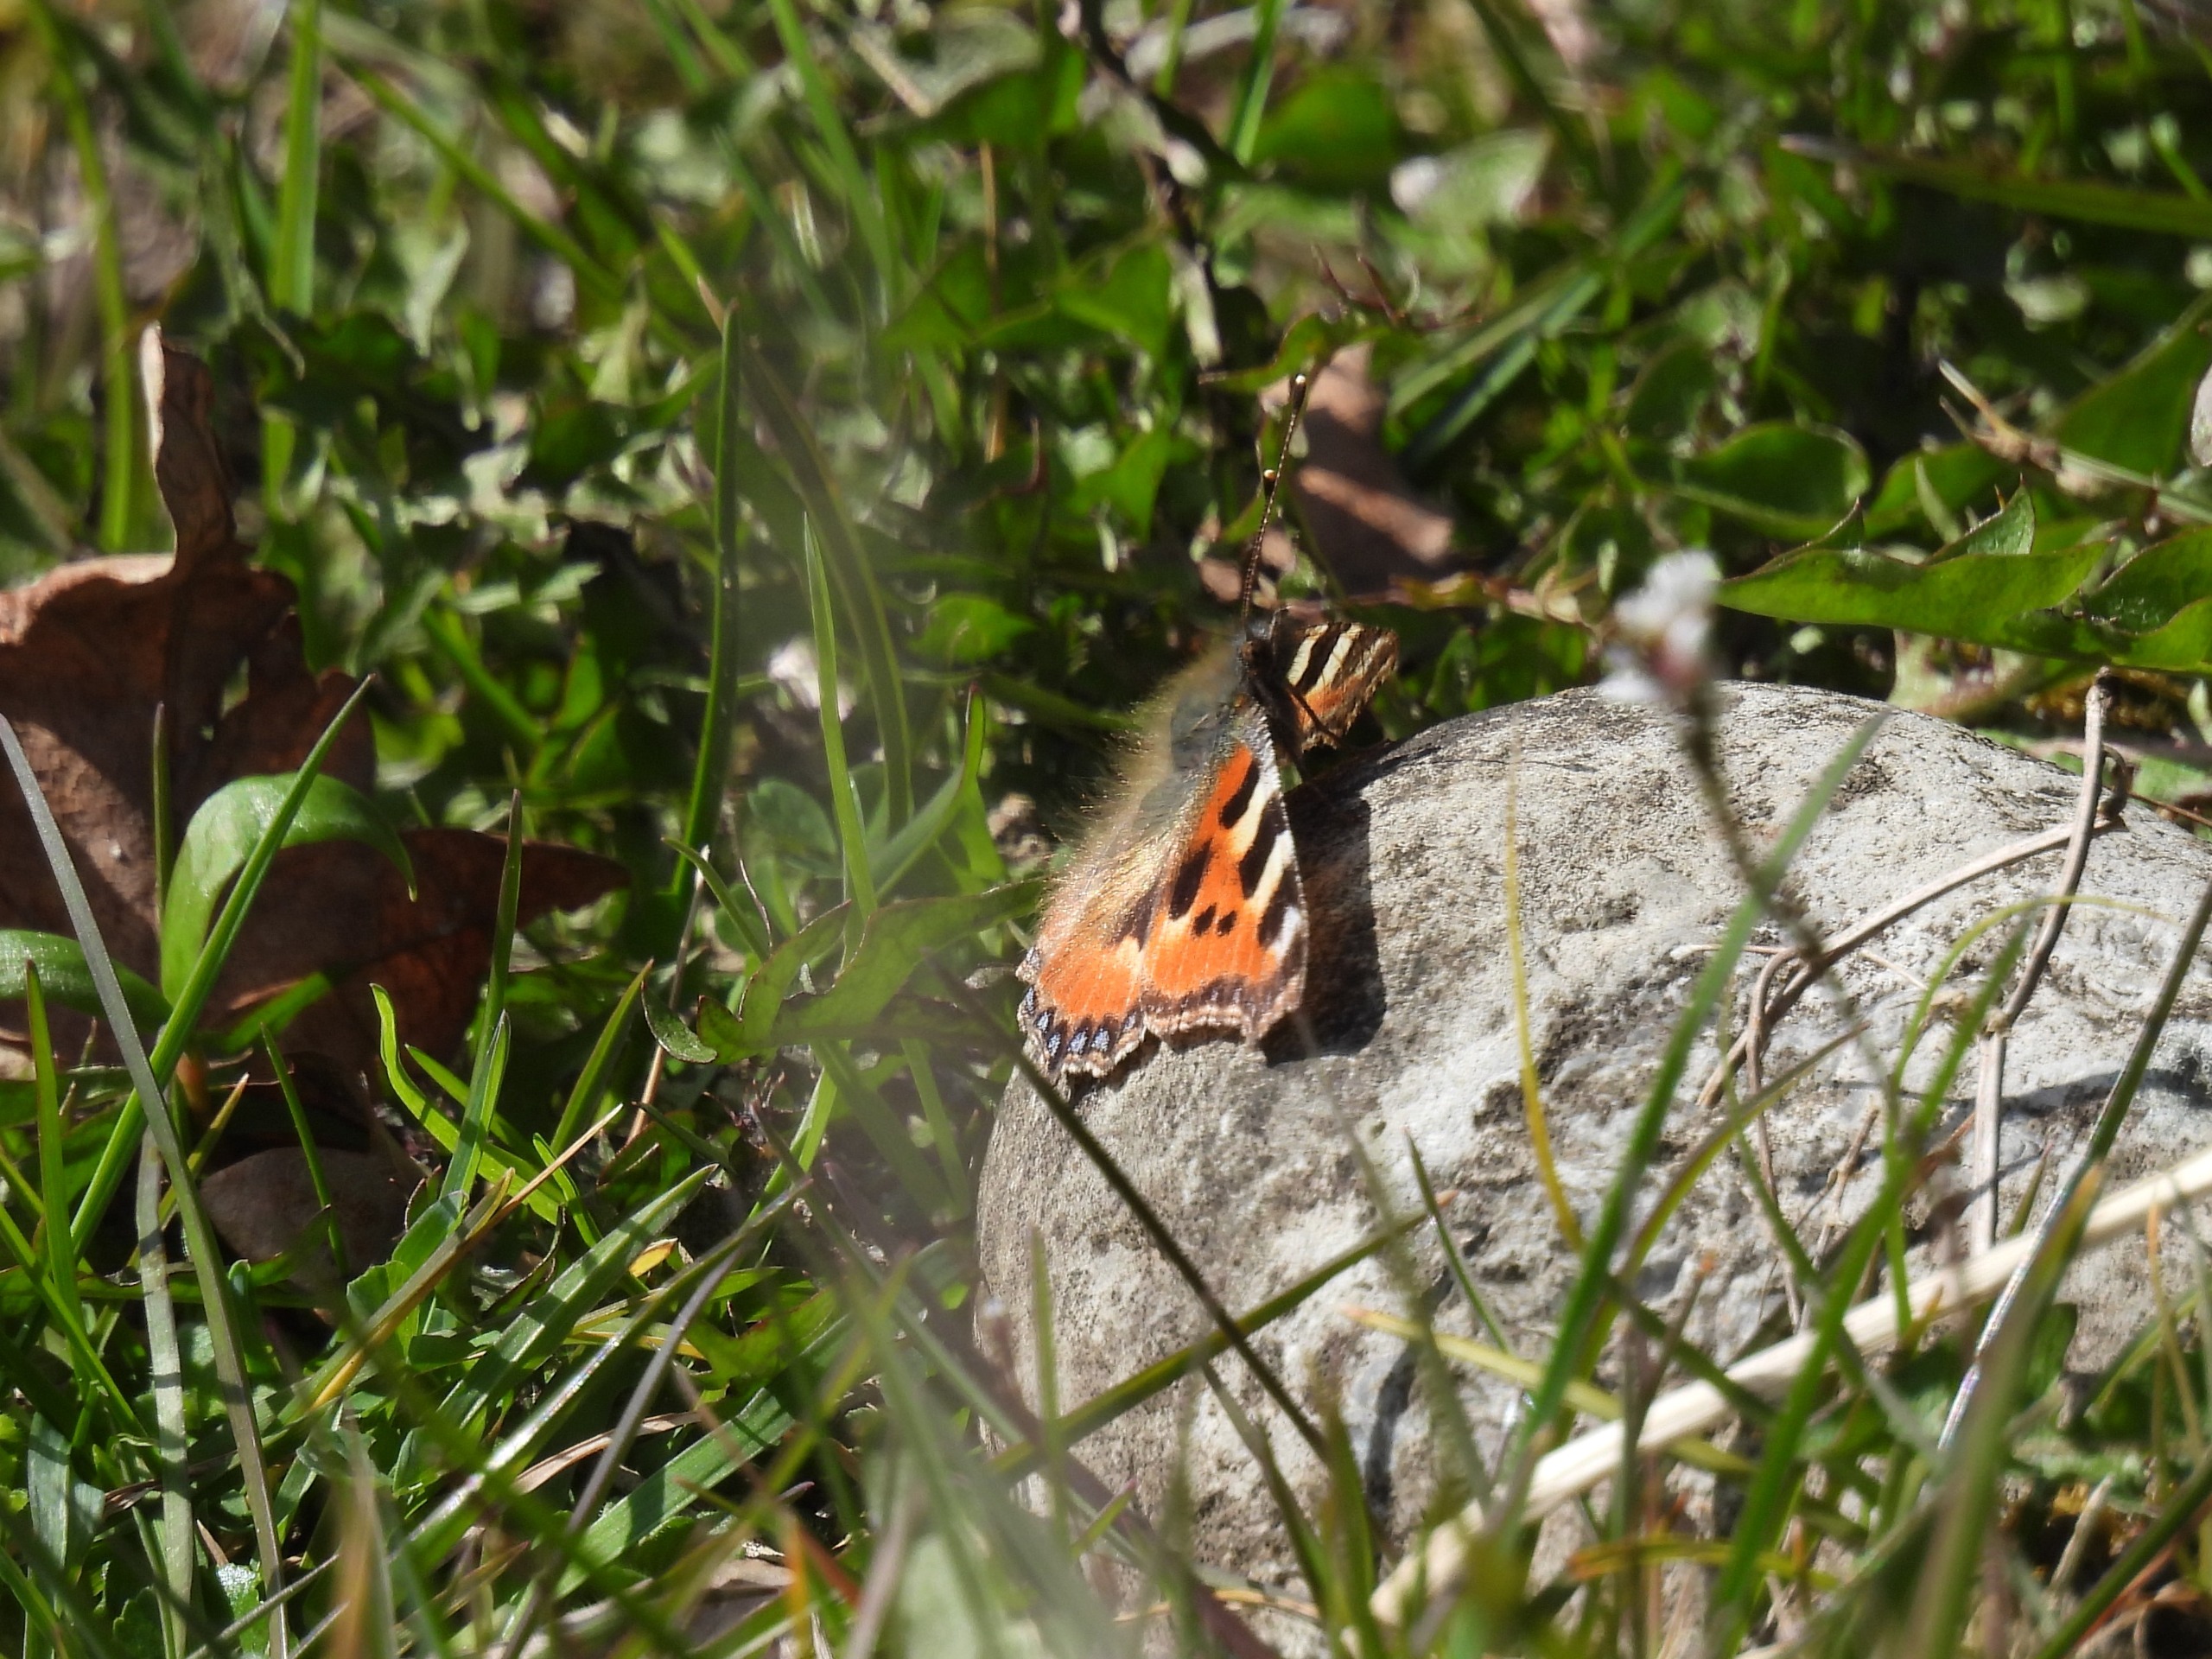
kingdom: Animalia
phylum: Arthropoda
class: Insecta
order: Lepidoptera
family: Nymphalidae
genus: Aglais
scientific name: Aglais urticae
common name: Nældens takvinge
